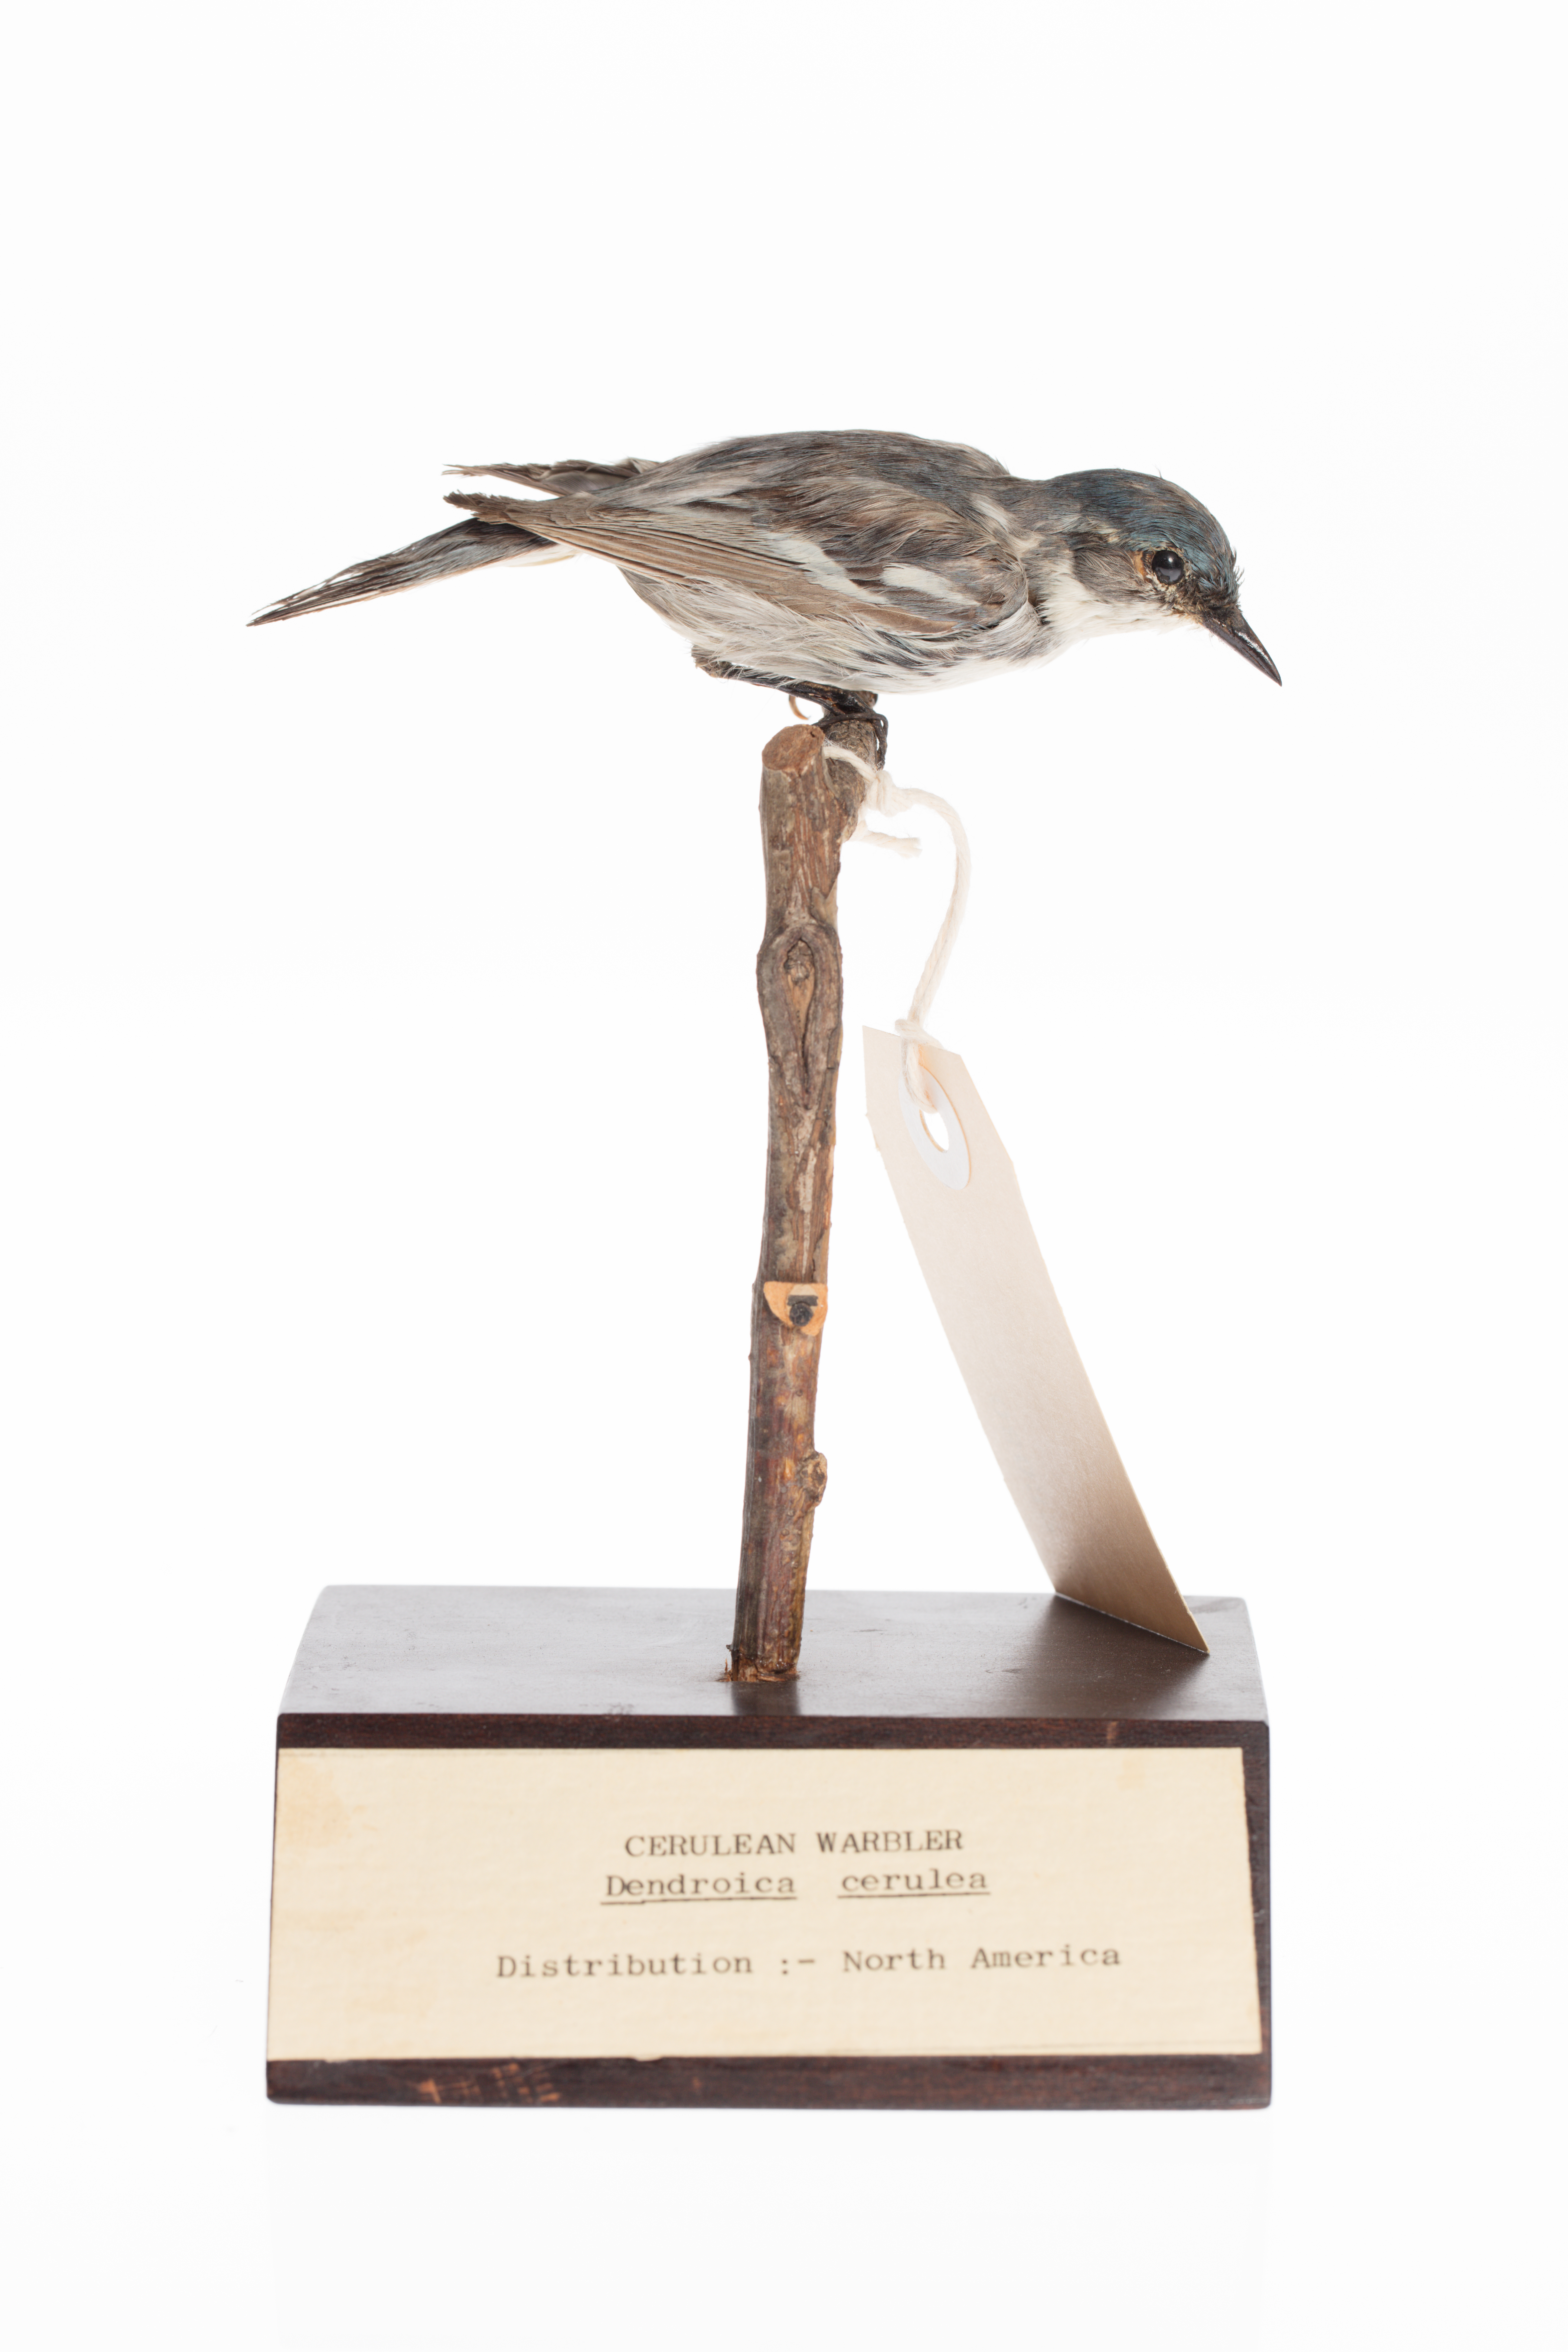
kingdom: Animalia
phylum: Chordata
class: Aves
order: Passeriformes
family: Parulidae
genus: Setophaga
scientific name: Setophaga caerulescens
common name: Black-throated blue warbler
